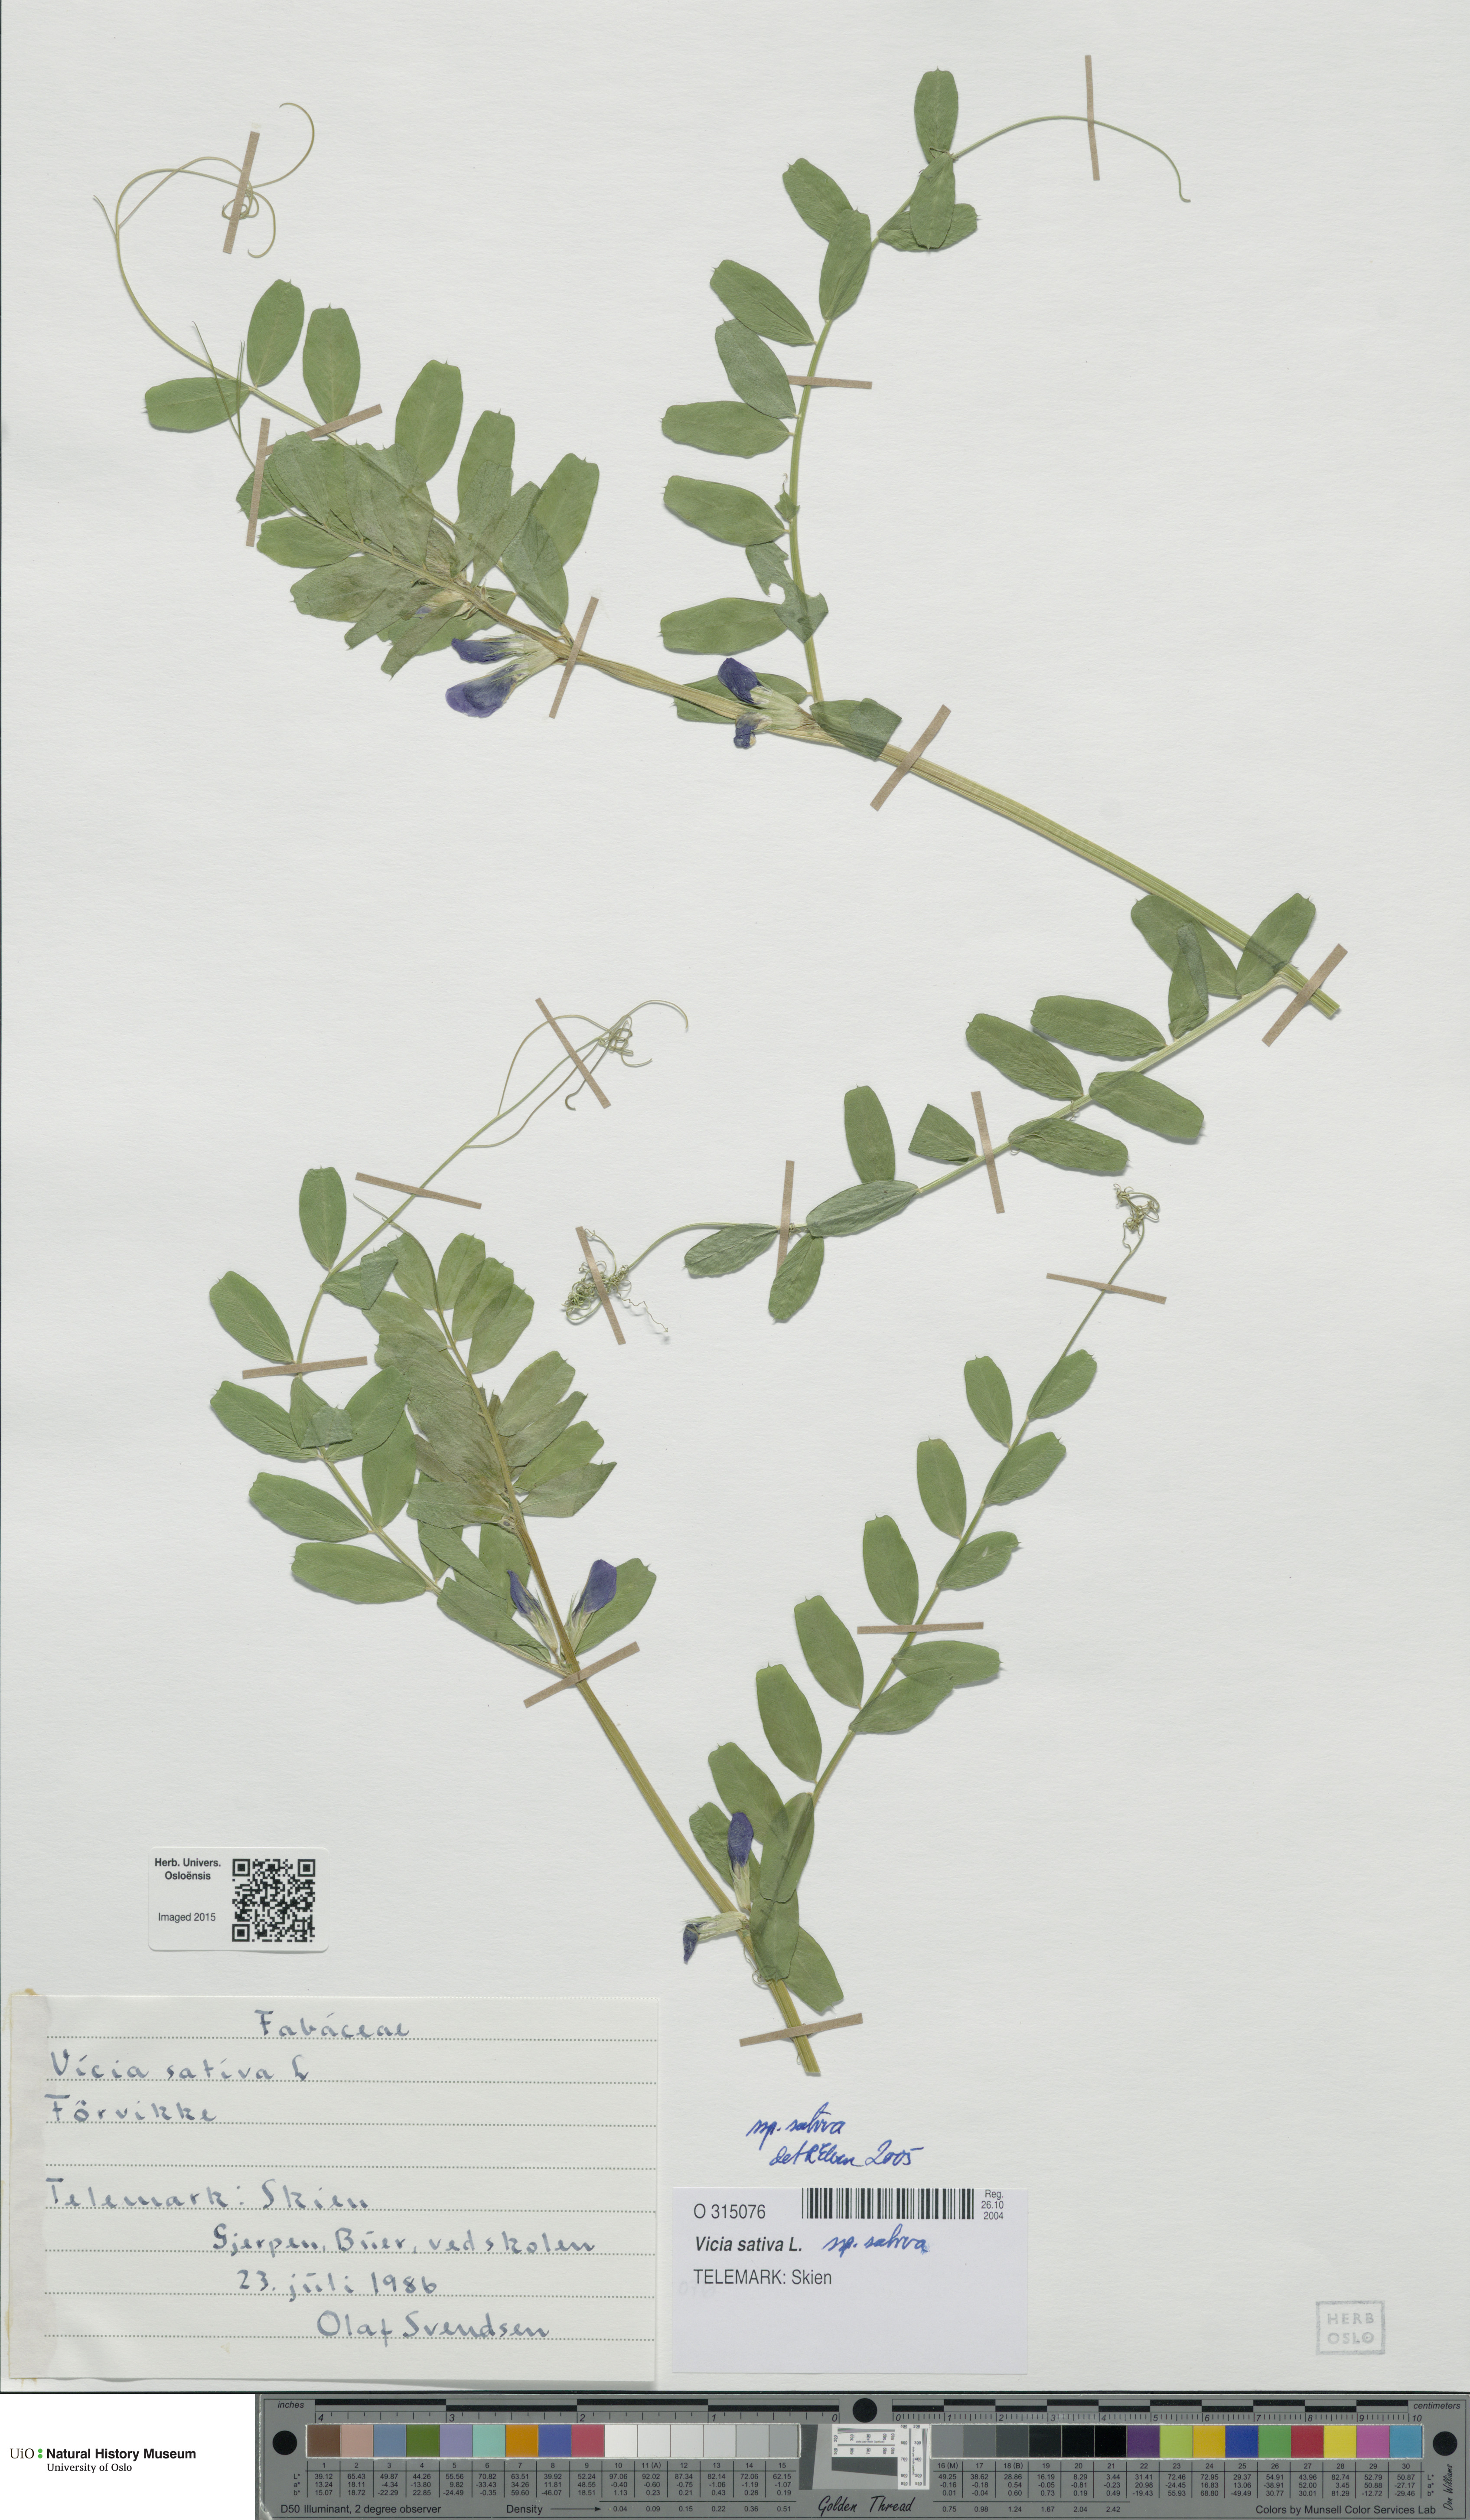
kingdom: Plantae
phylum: Tracheophyta
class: Magnoliopsida
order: Fabales
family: Fabaceae
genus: Vicia
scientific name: Vicia sativa
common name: Garden vetch
